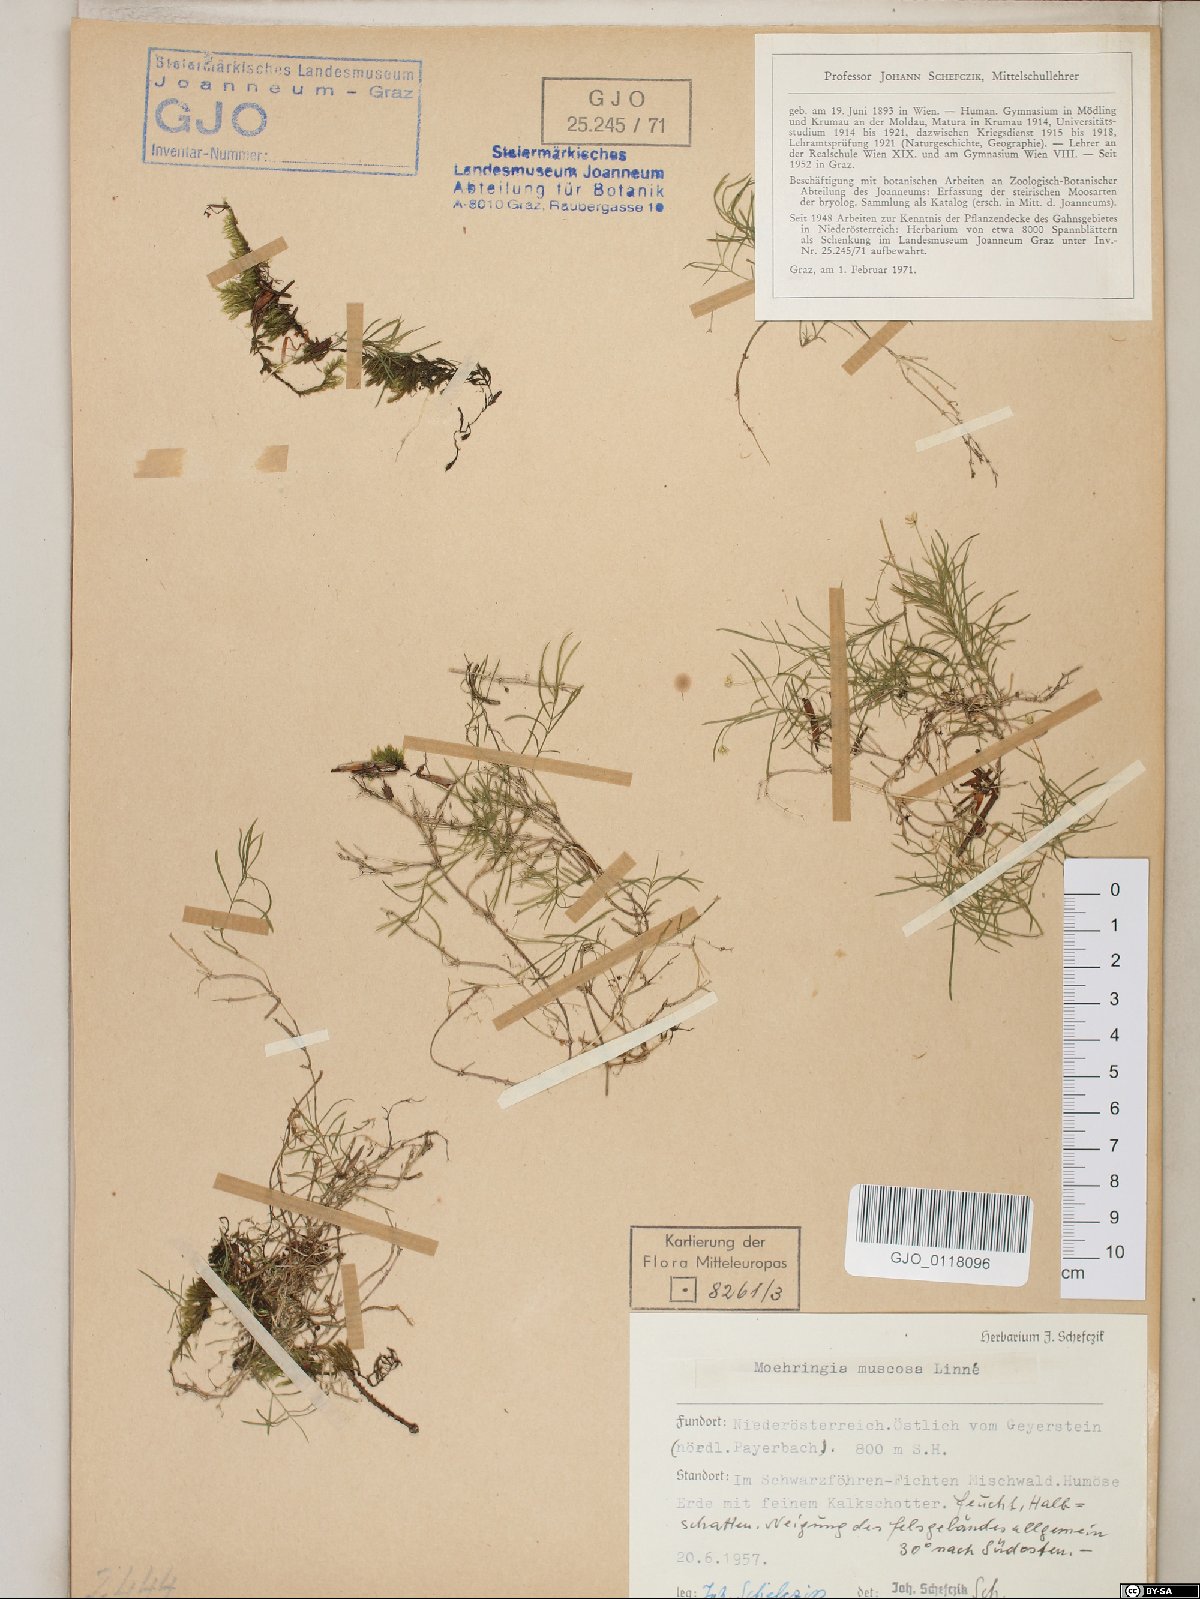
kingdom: Plantae
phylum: Tracheophyta
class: Magnoliopsida
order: Caryophyllales
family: Caryophyllaceae
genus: Moehringia
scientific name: Moehringia muscosa
